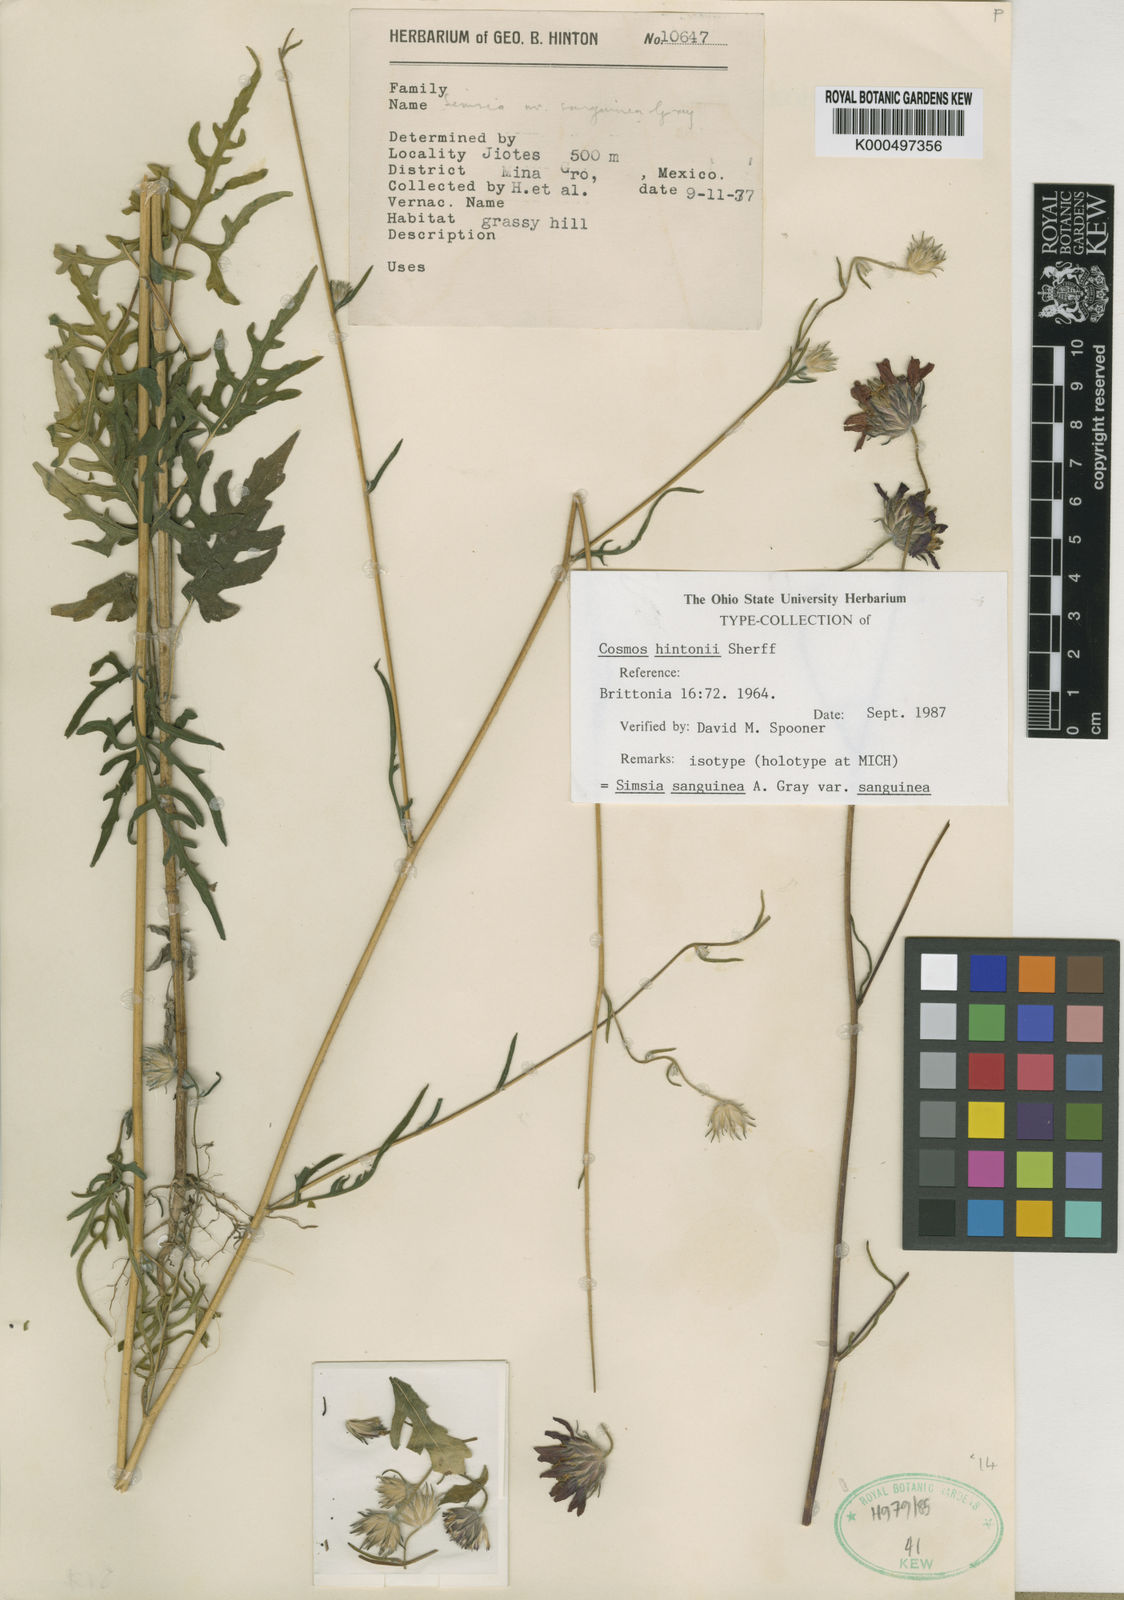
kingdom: Plantae
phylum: Tracheophyta
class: Magnoliopsida
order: Asterales
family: Asteraceae
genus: Simsia
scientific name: Simsia sanguinea
